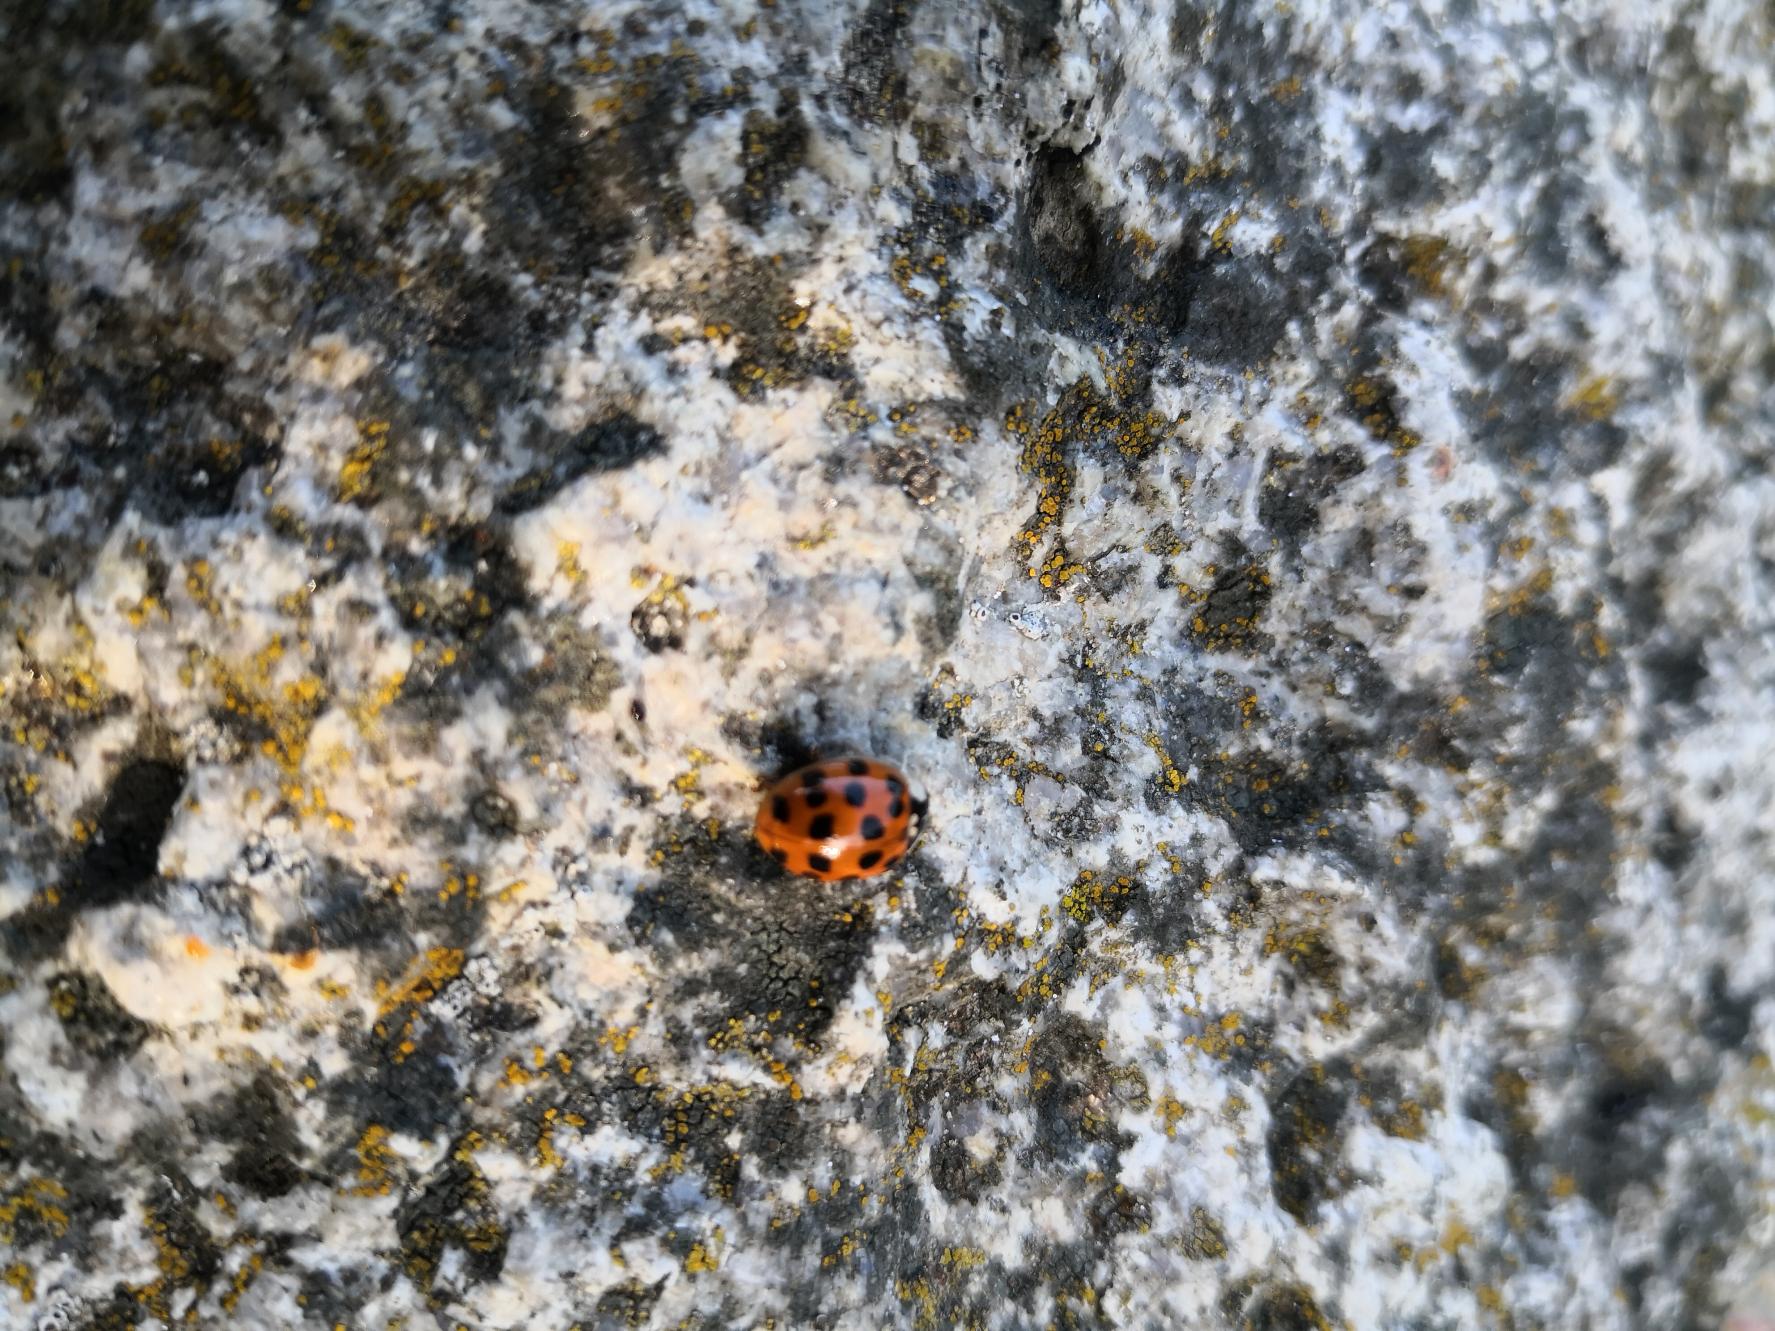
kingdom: Animalia
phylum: Arthropoda
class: Insecta
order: Coleoptera
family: Coccinellidae
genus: Harmonia
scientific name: Harmonia axyridis
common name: Harlekinmariehøne
